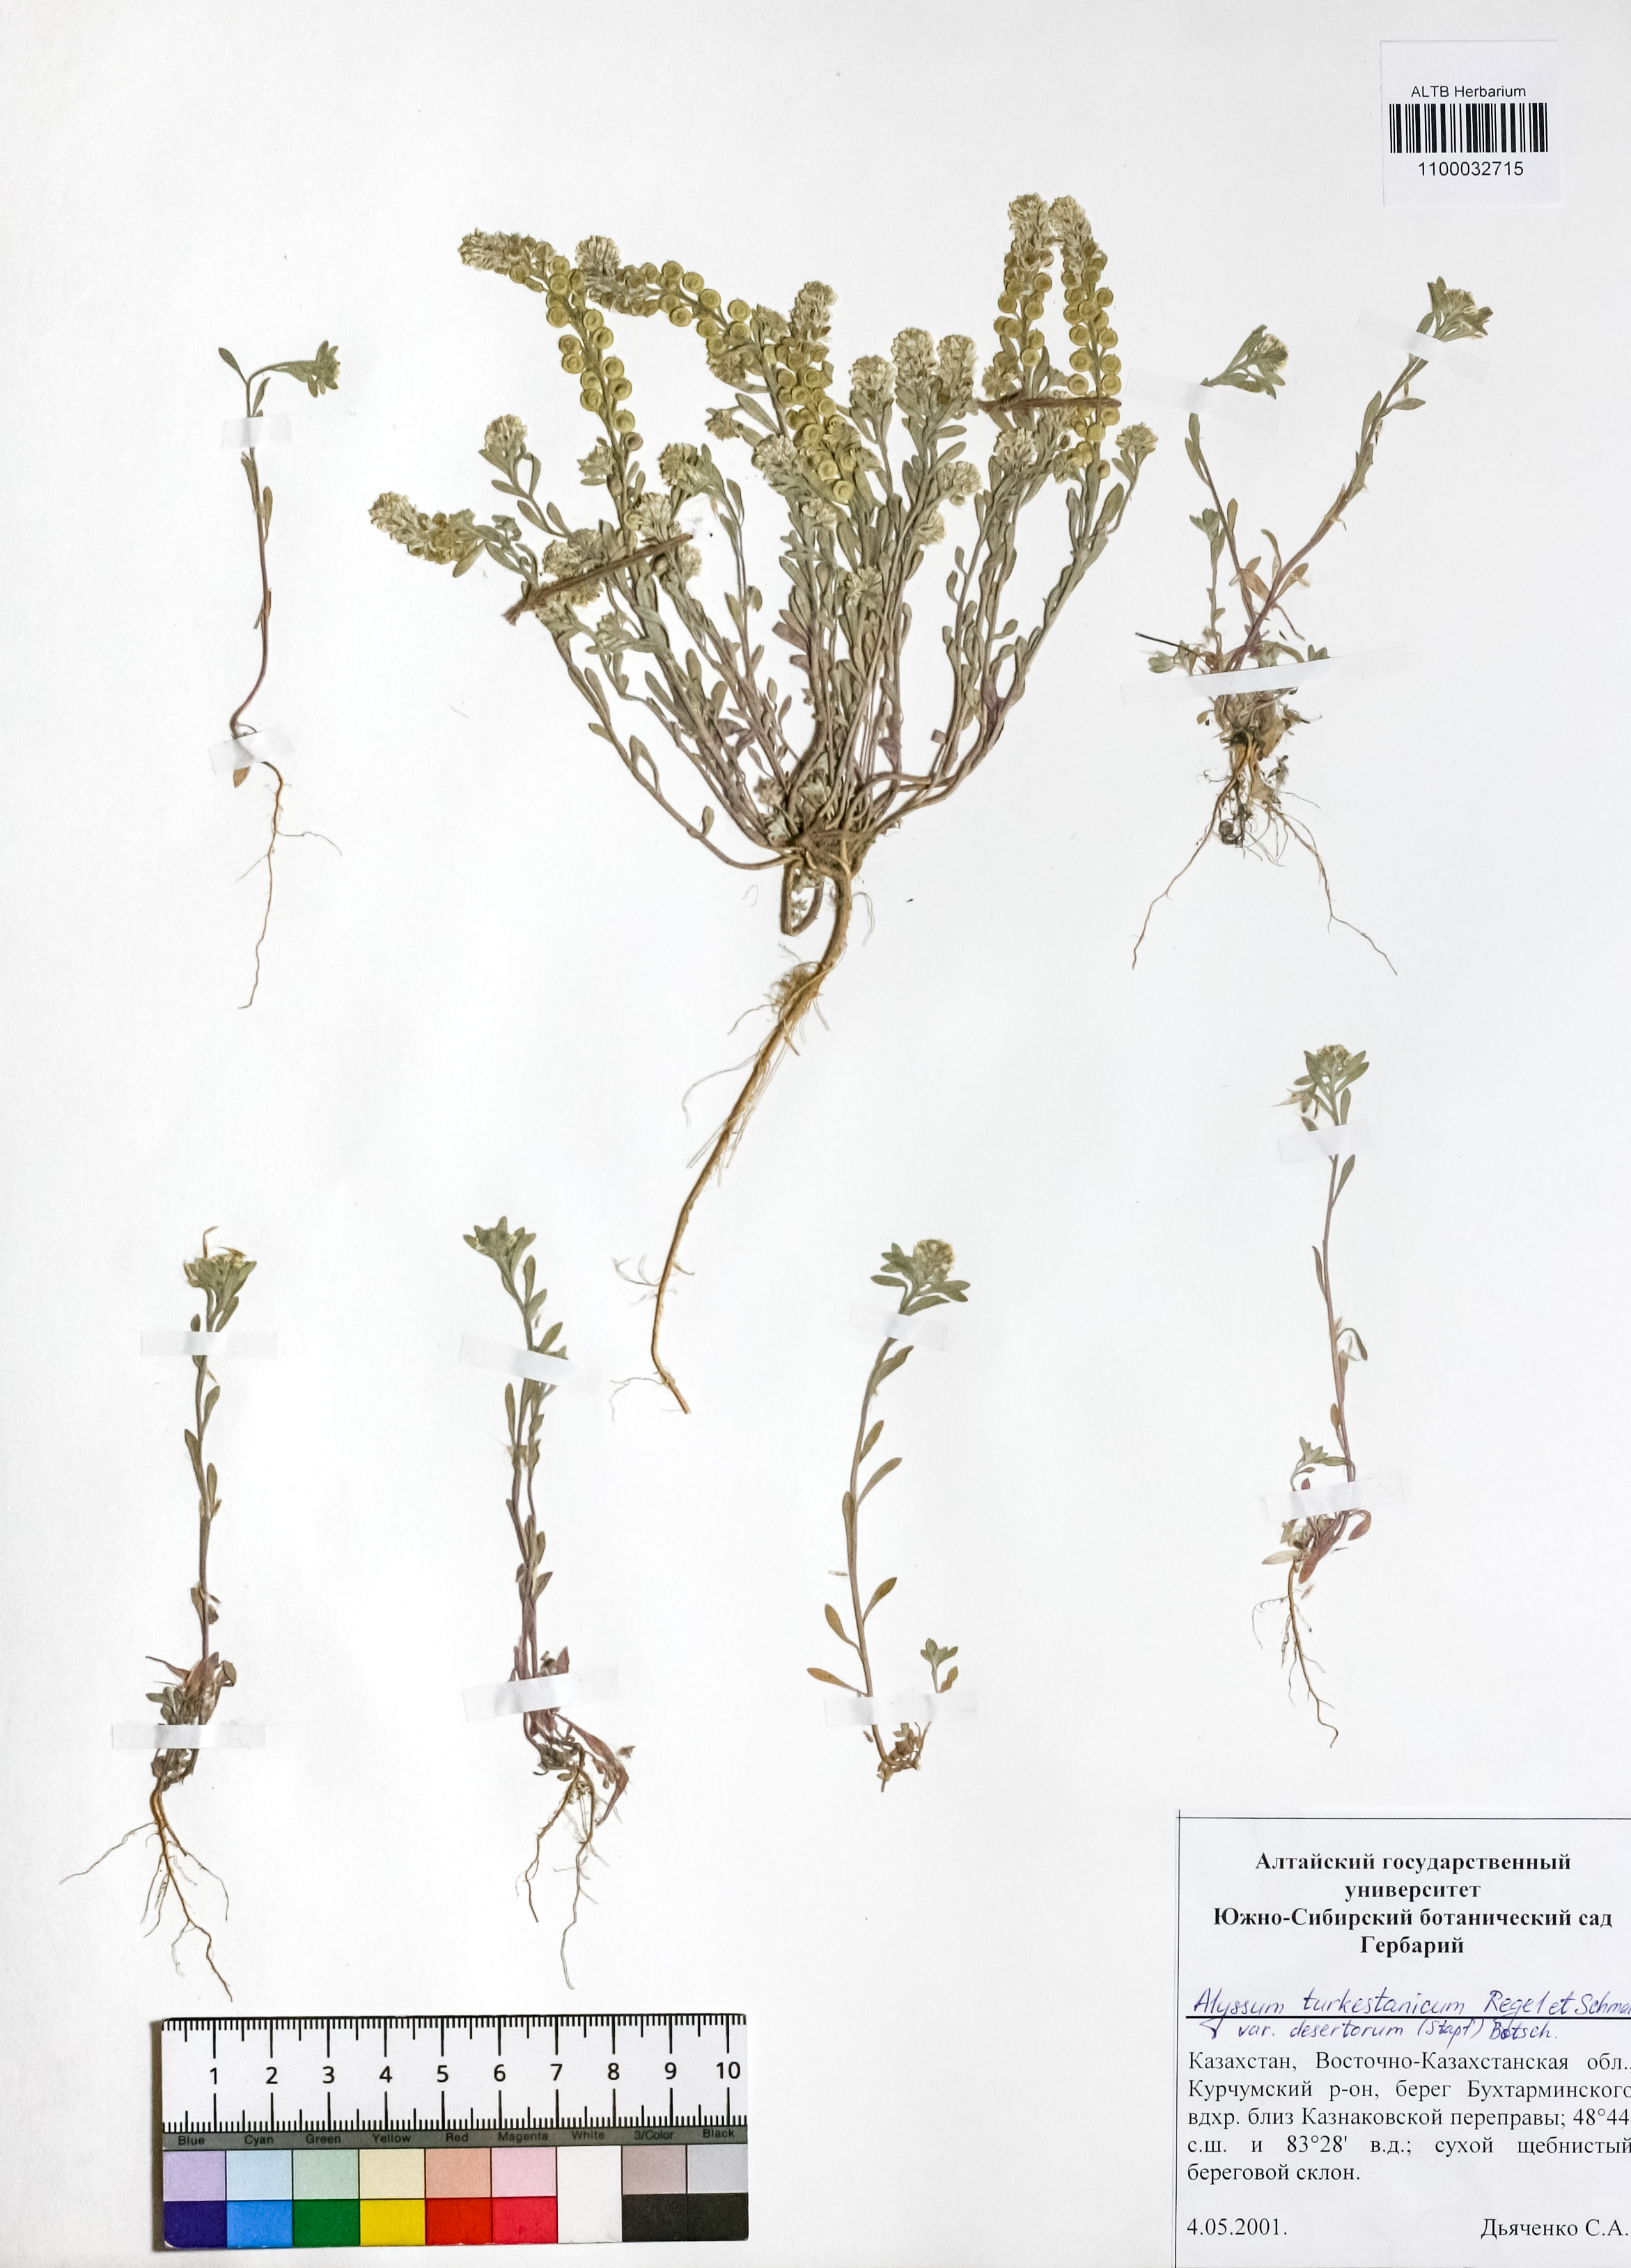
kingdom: Plantae
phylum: Tracheophyta
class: Magnoliopsida
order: Brassicales
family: Brassicaceae
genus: Alyssum
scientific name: Alyssum turkestanicum
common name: Desert alyssum
